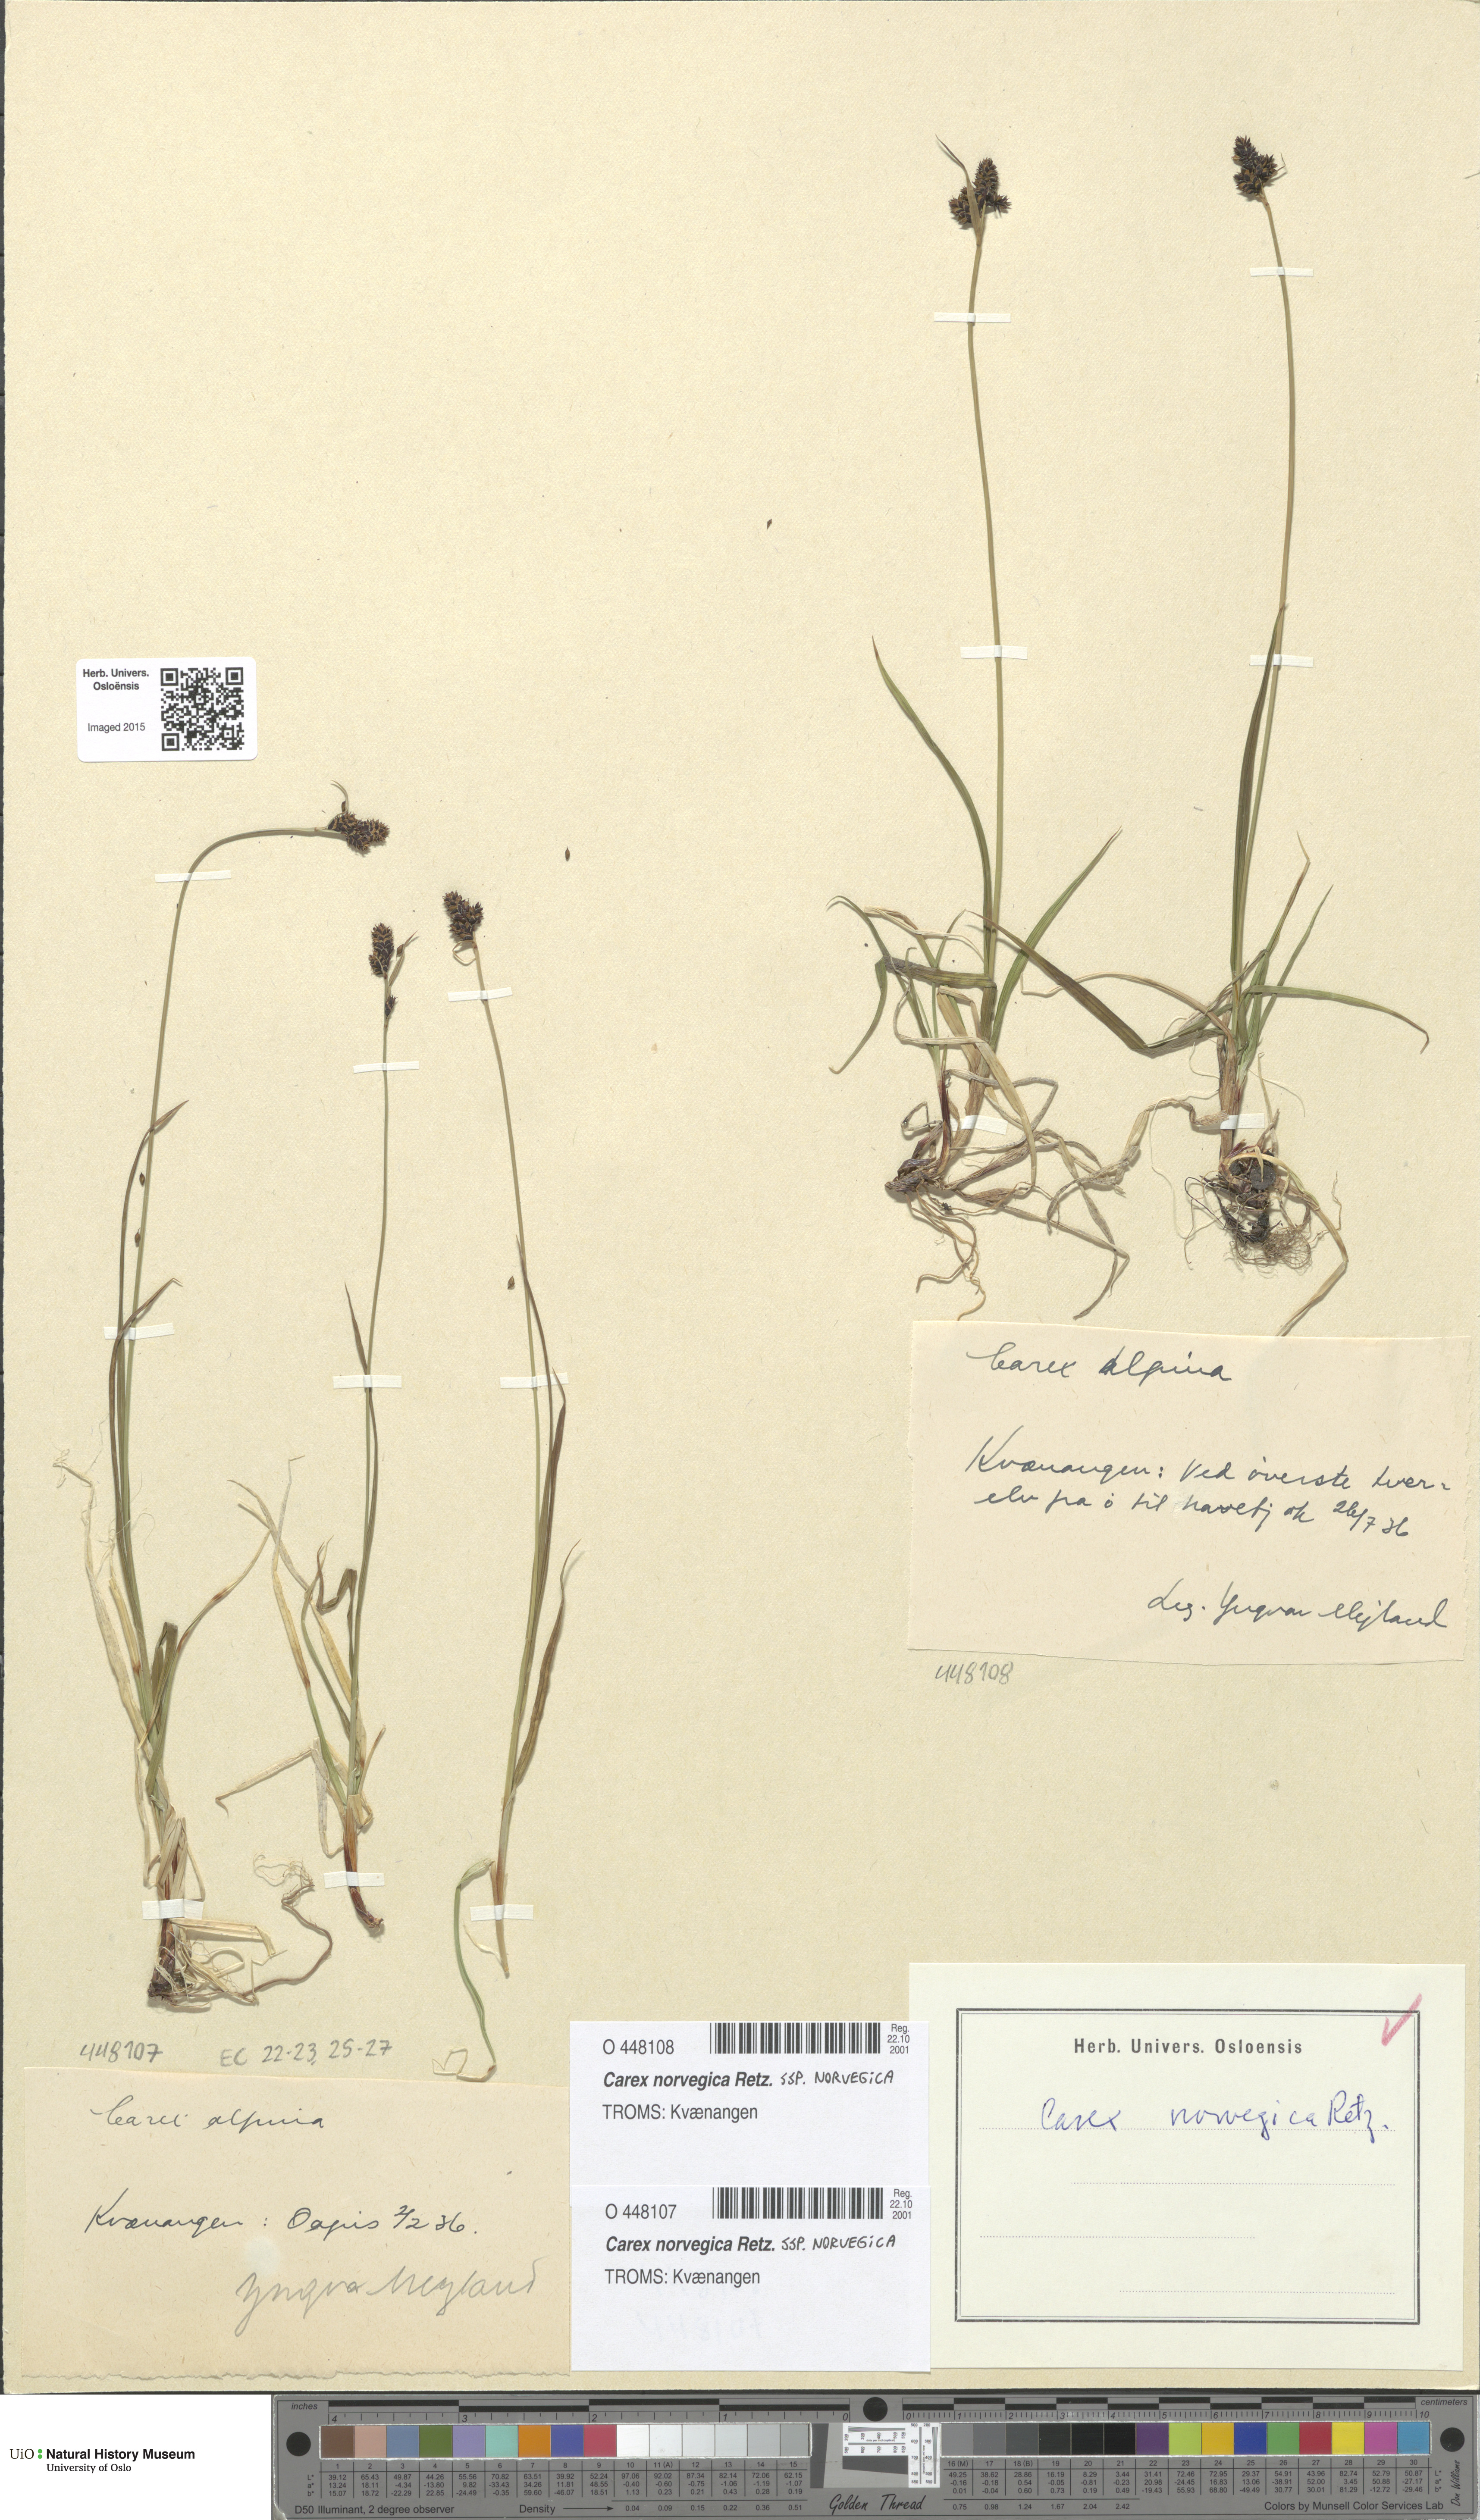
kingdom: Plantae
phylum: Tracheophyta
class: Liliopsida
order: Poales
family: Cyperaceae
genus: Carex
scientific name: Carex norvegica
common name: Close-headed alpine-sedge
